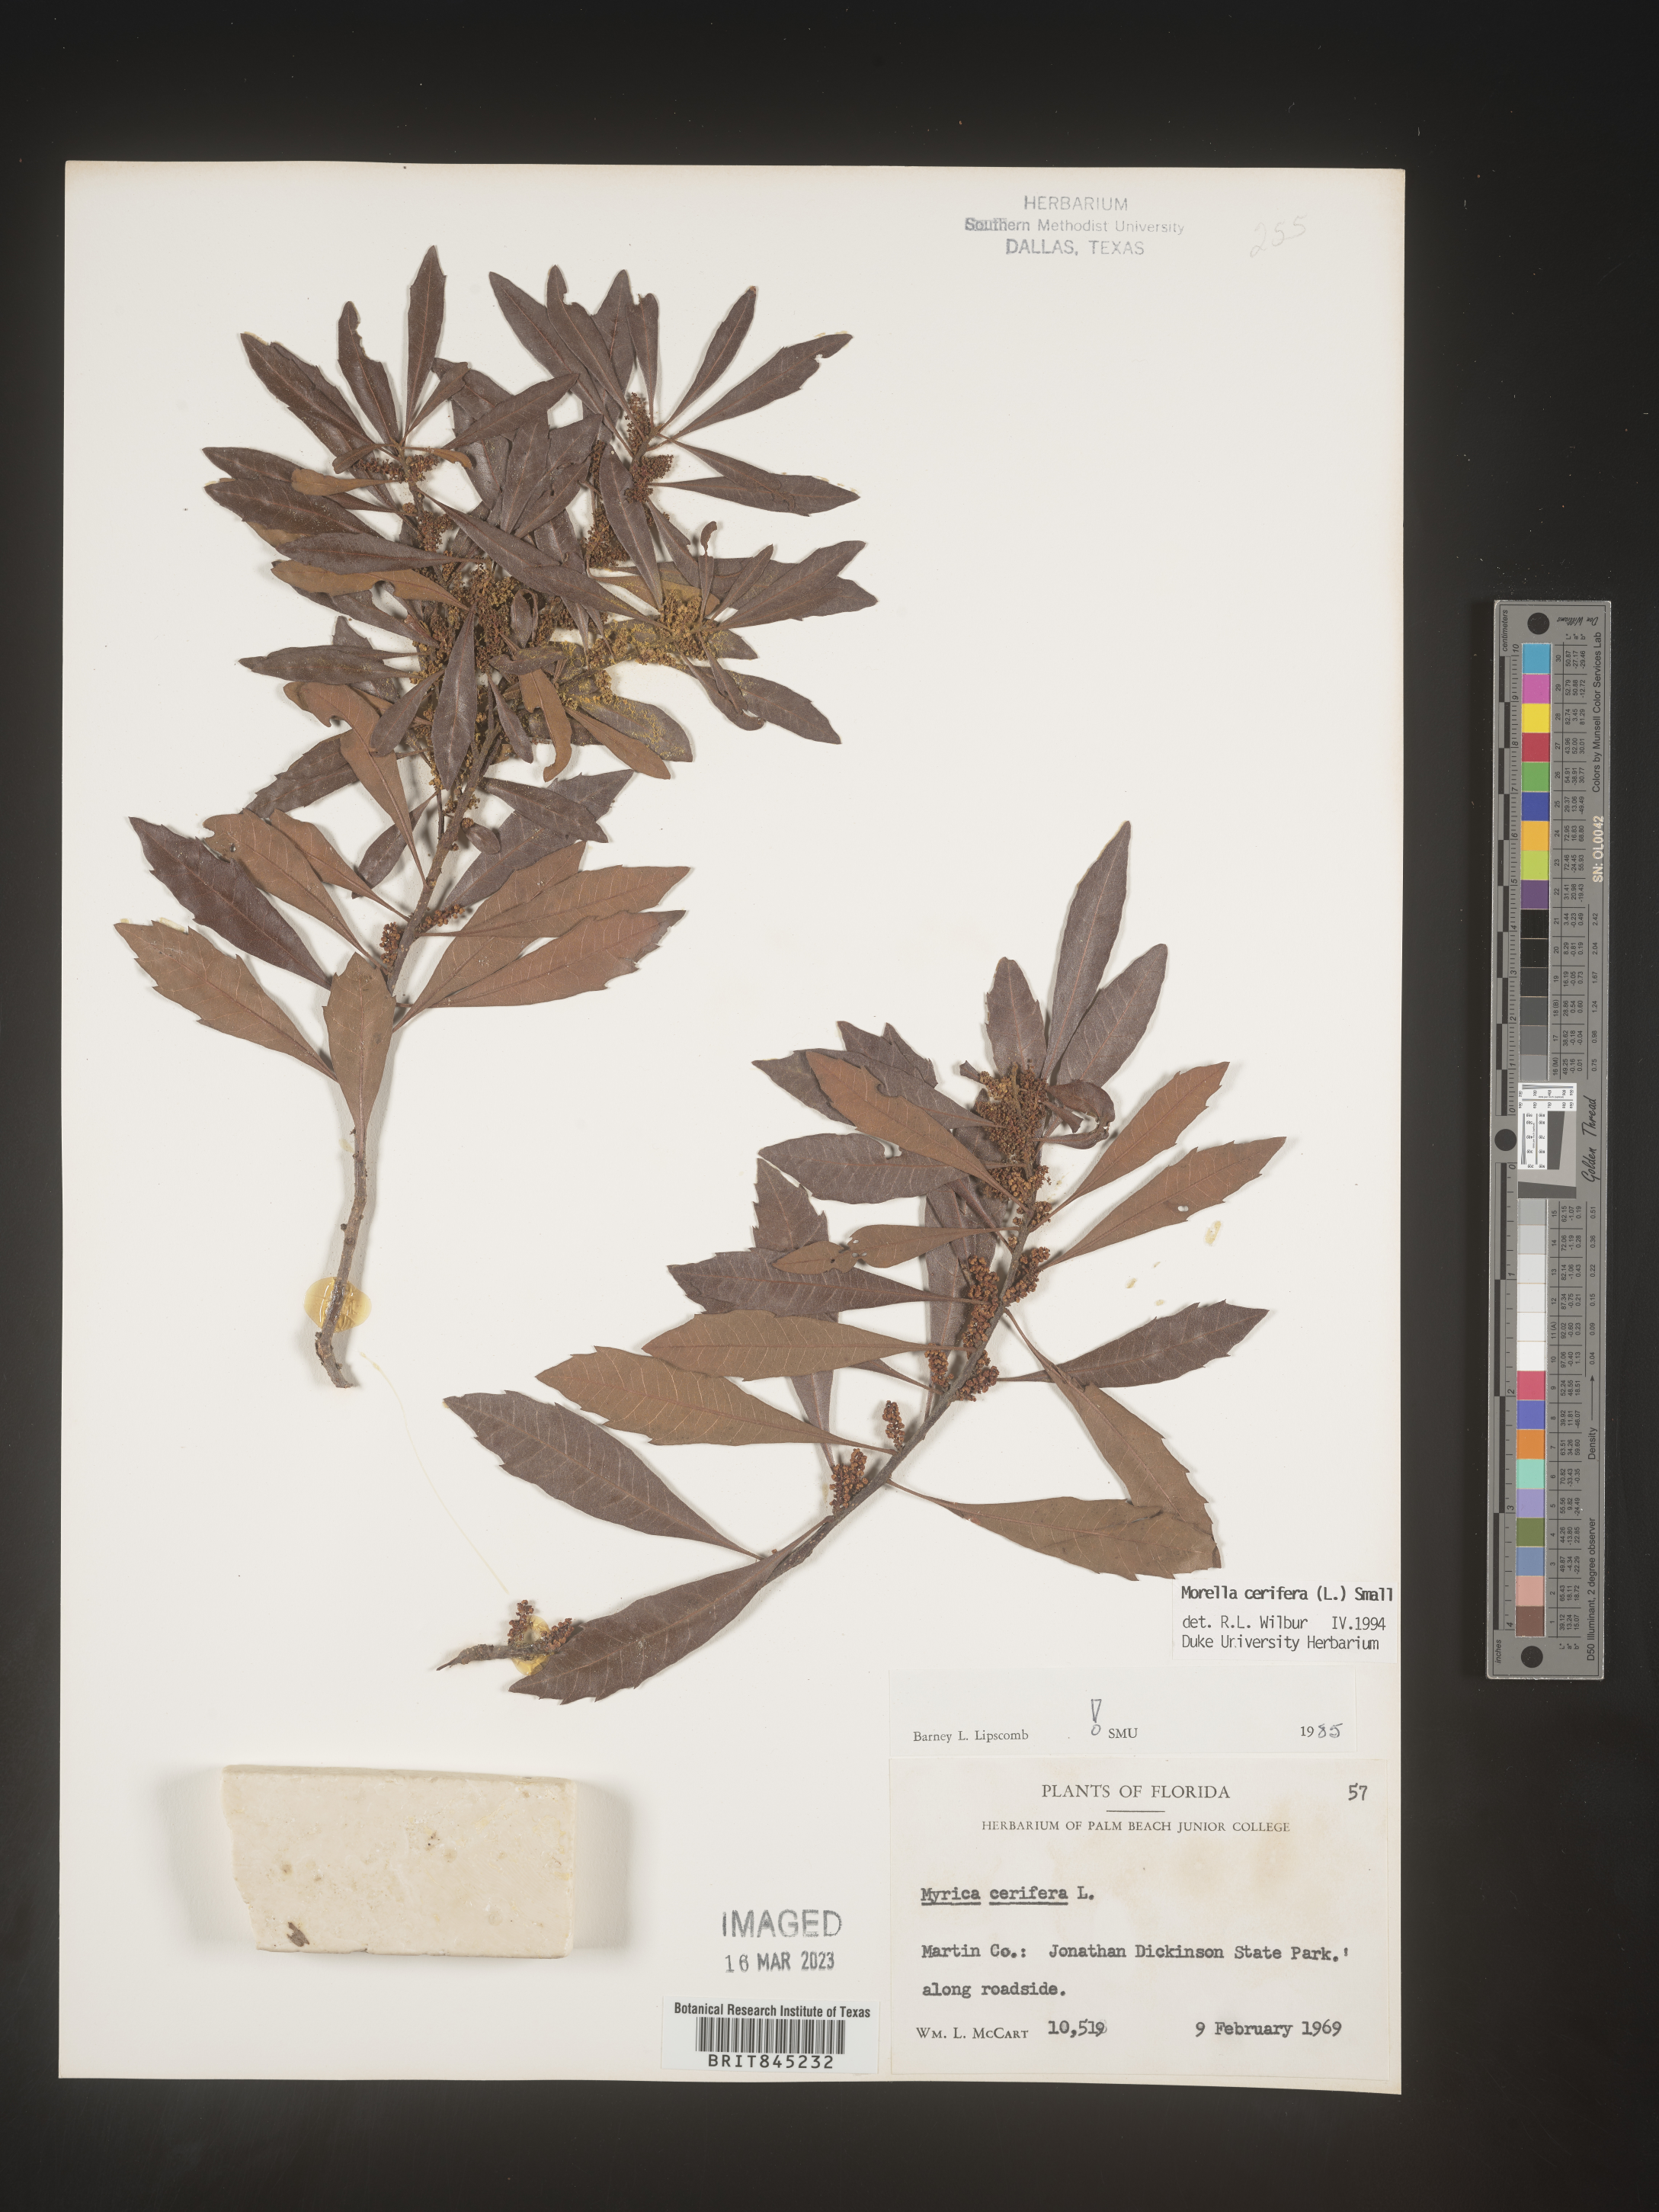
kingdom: Plantae
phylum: Tracheophyta
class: Magnoliopsida
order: Fagales
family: Myricaceae
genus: Morella
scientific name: Morella cerifera
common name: Wax myrtle
